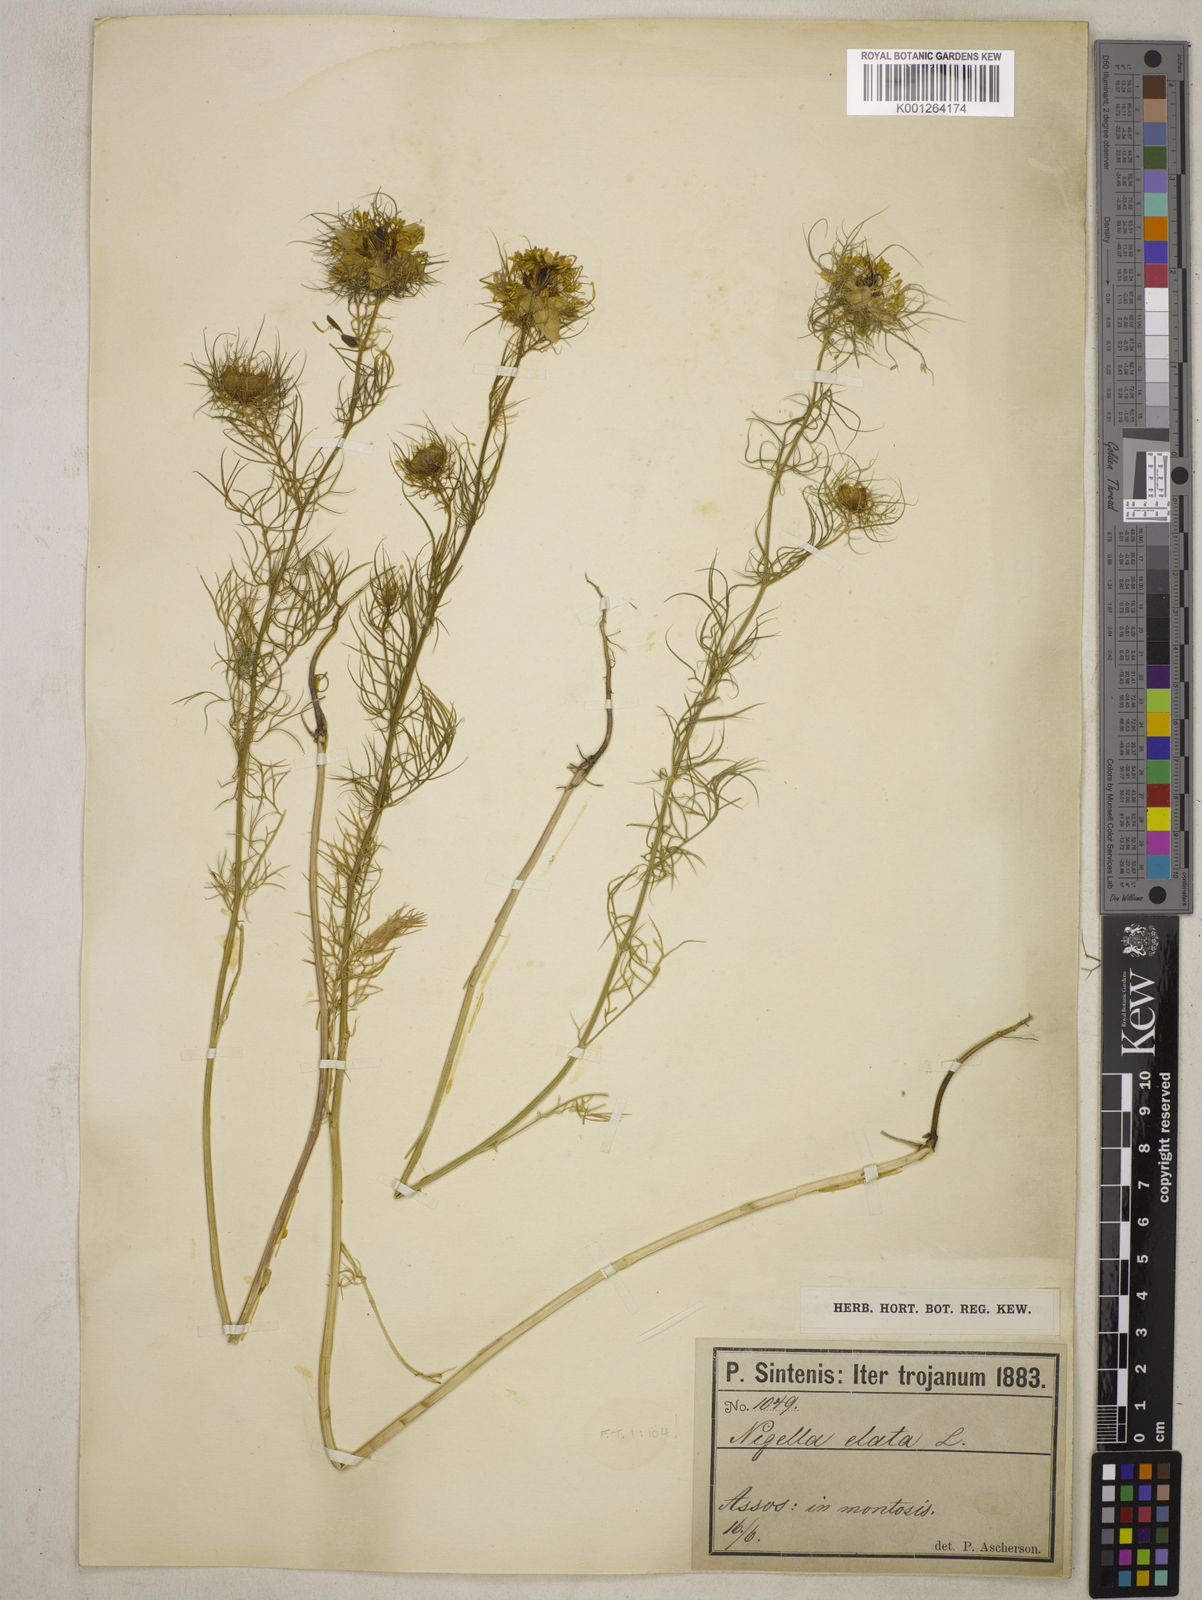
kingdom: Plantae
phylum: Tracheophyta
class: Magnoliopsida
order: Ranunculales
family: Ranunculaceae
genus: Nigella
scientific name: Nigella elata
